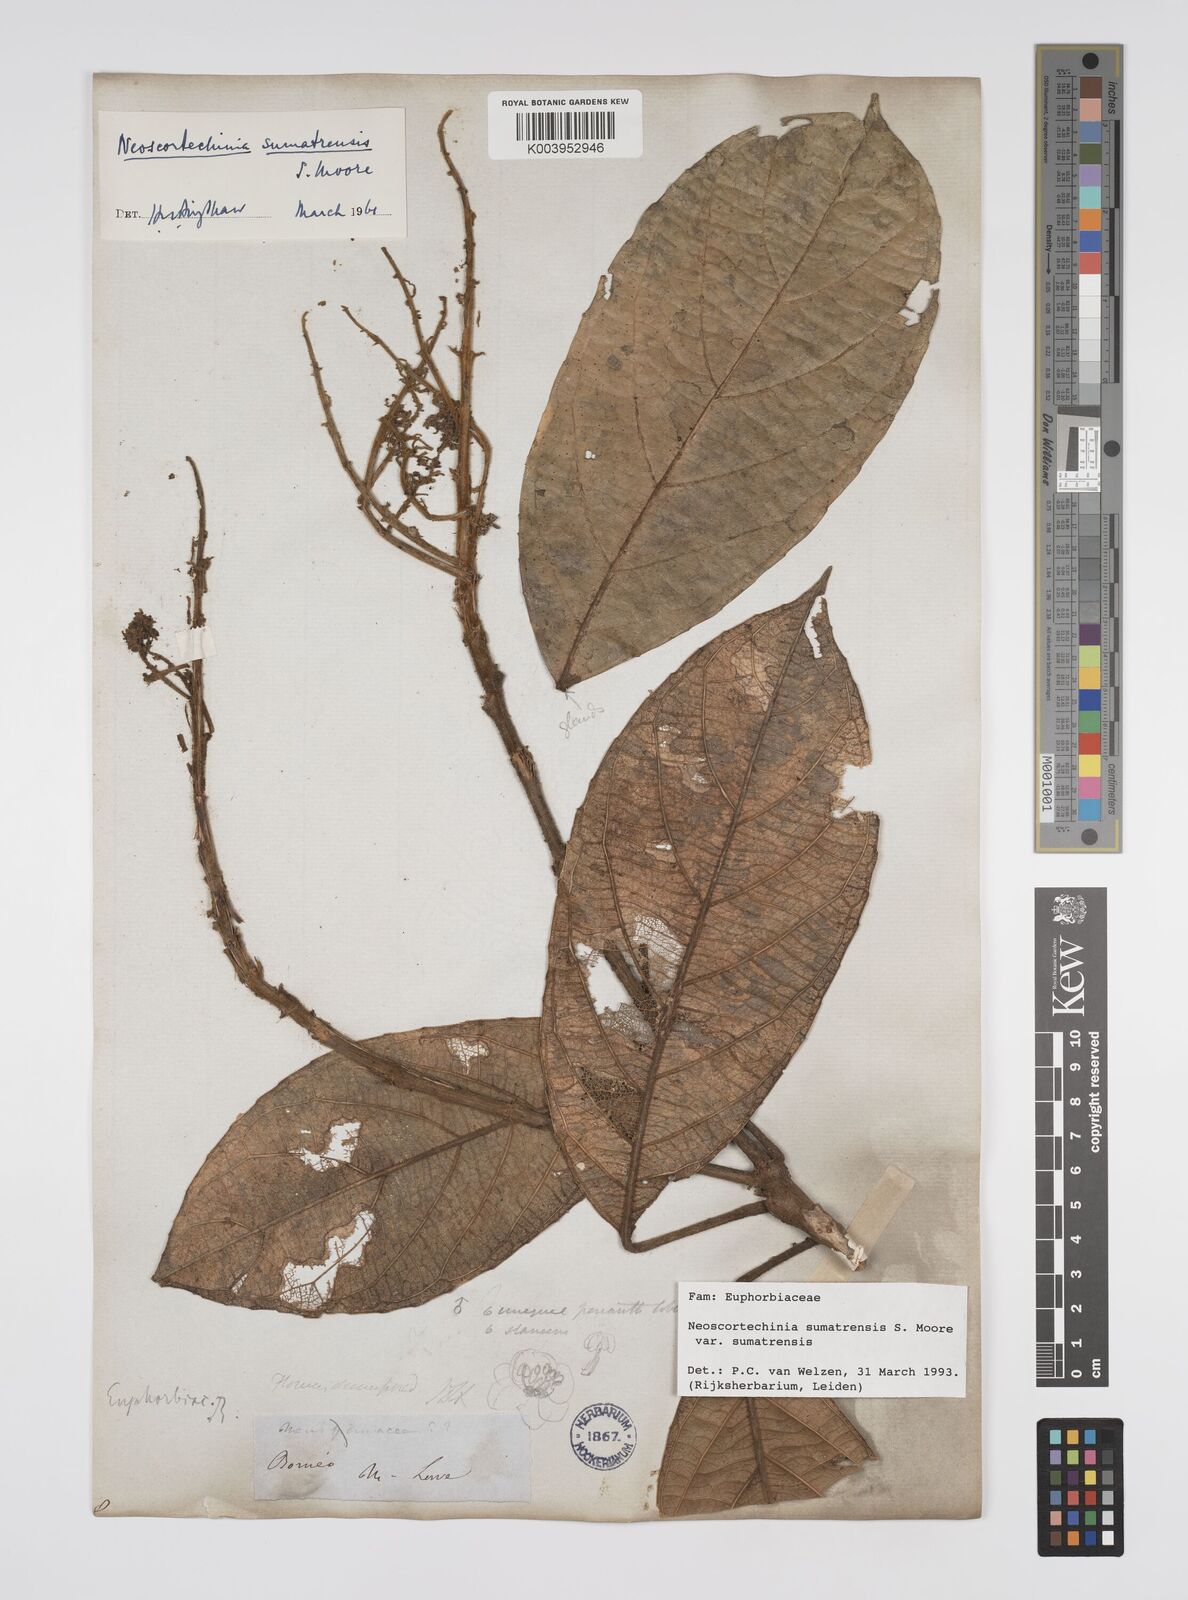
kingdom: Plantae
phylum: Tracheophyta
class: Magnoliopsida
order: Malpighiales
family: Euphorbiaceae
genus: Neoscortechinia
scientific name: Neoscortechinia sumatrensis
